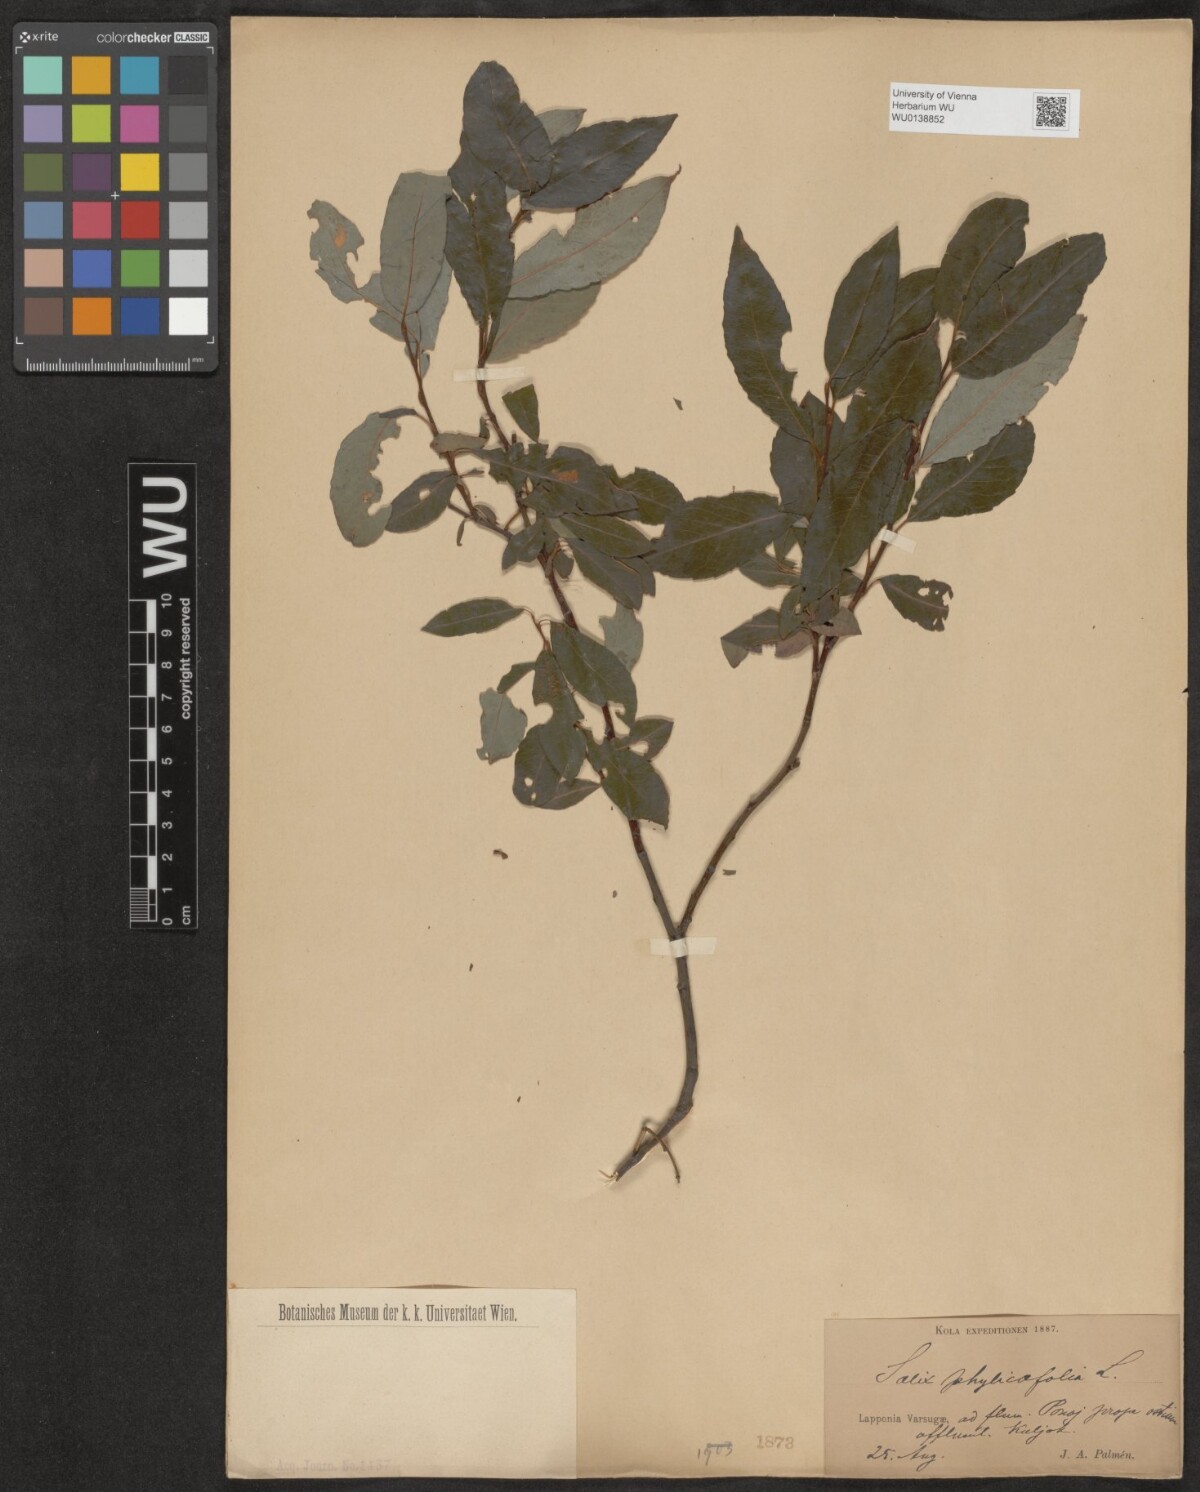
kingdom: Plantae
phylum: Tracheophyta
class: Magnoliopsida
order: Malpighiales
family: Salicaceae
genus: Salix
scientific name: Salix phylicifolia
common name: Tea-leaved willow
